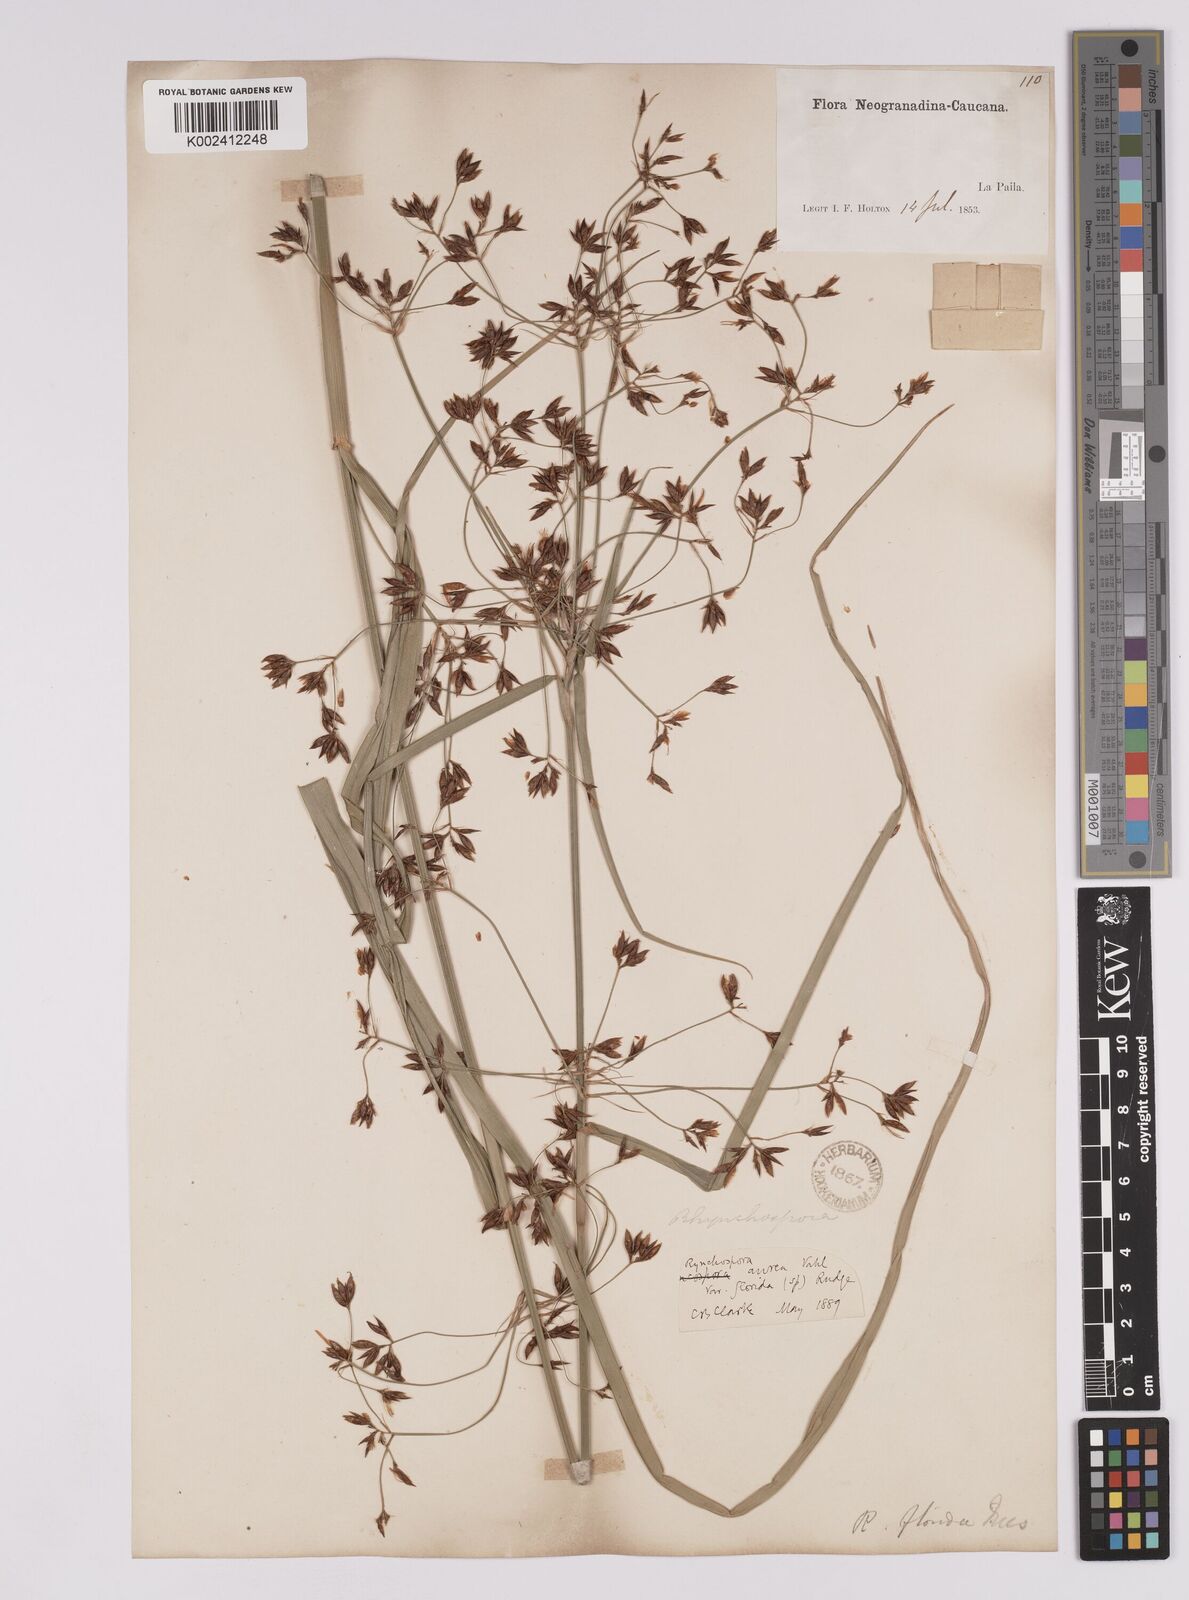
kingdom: Plantae
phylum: Tracheophyta
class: Liliopsida
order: Poales
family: Cyperaceae
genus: Rhynchospora
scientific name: Rhynchospora corymbosa
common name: Golden beak sedge
